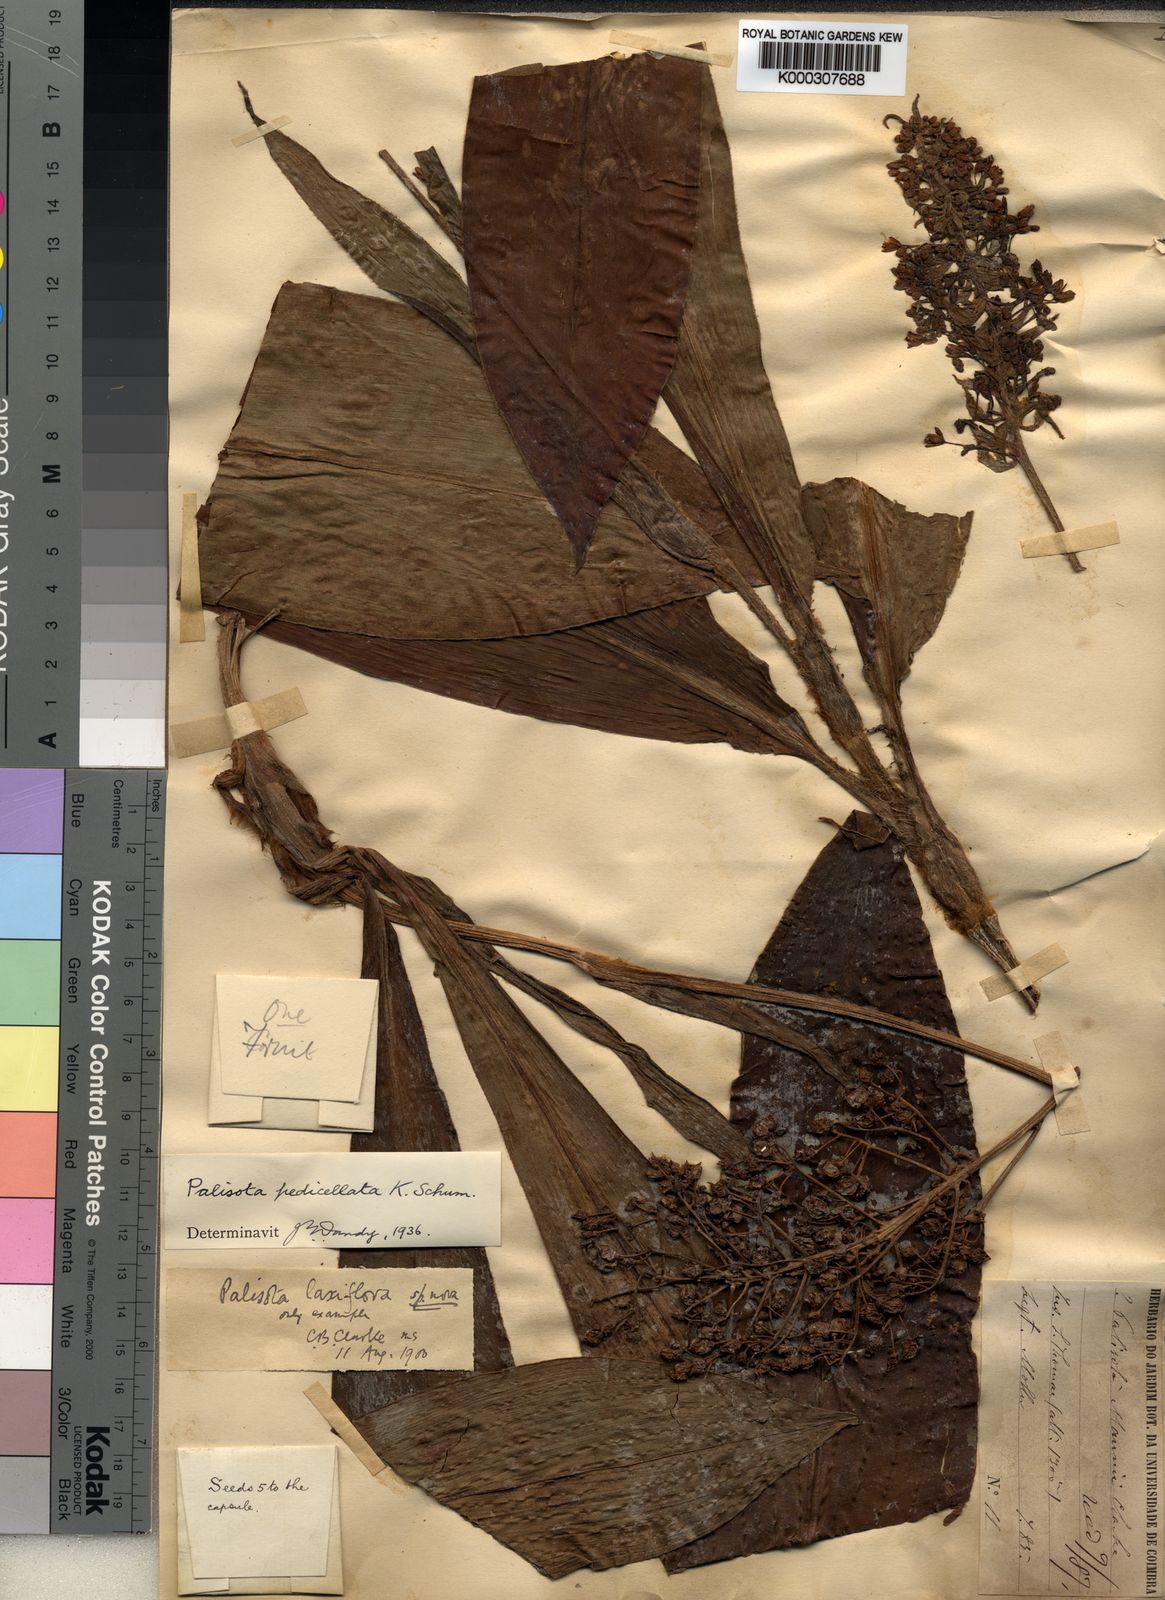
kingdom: Plantae
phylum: Tracheophyta
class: Liliopsida
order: Commelinales
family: Commelinaceae
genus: Palisota
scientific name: Palisota pedicellata
